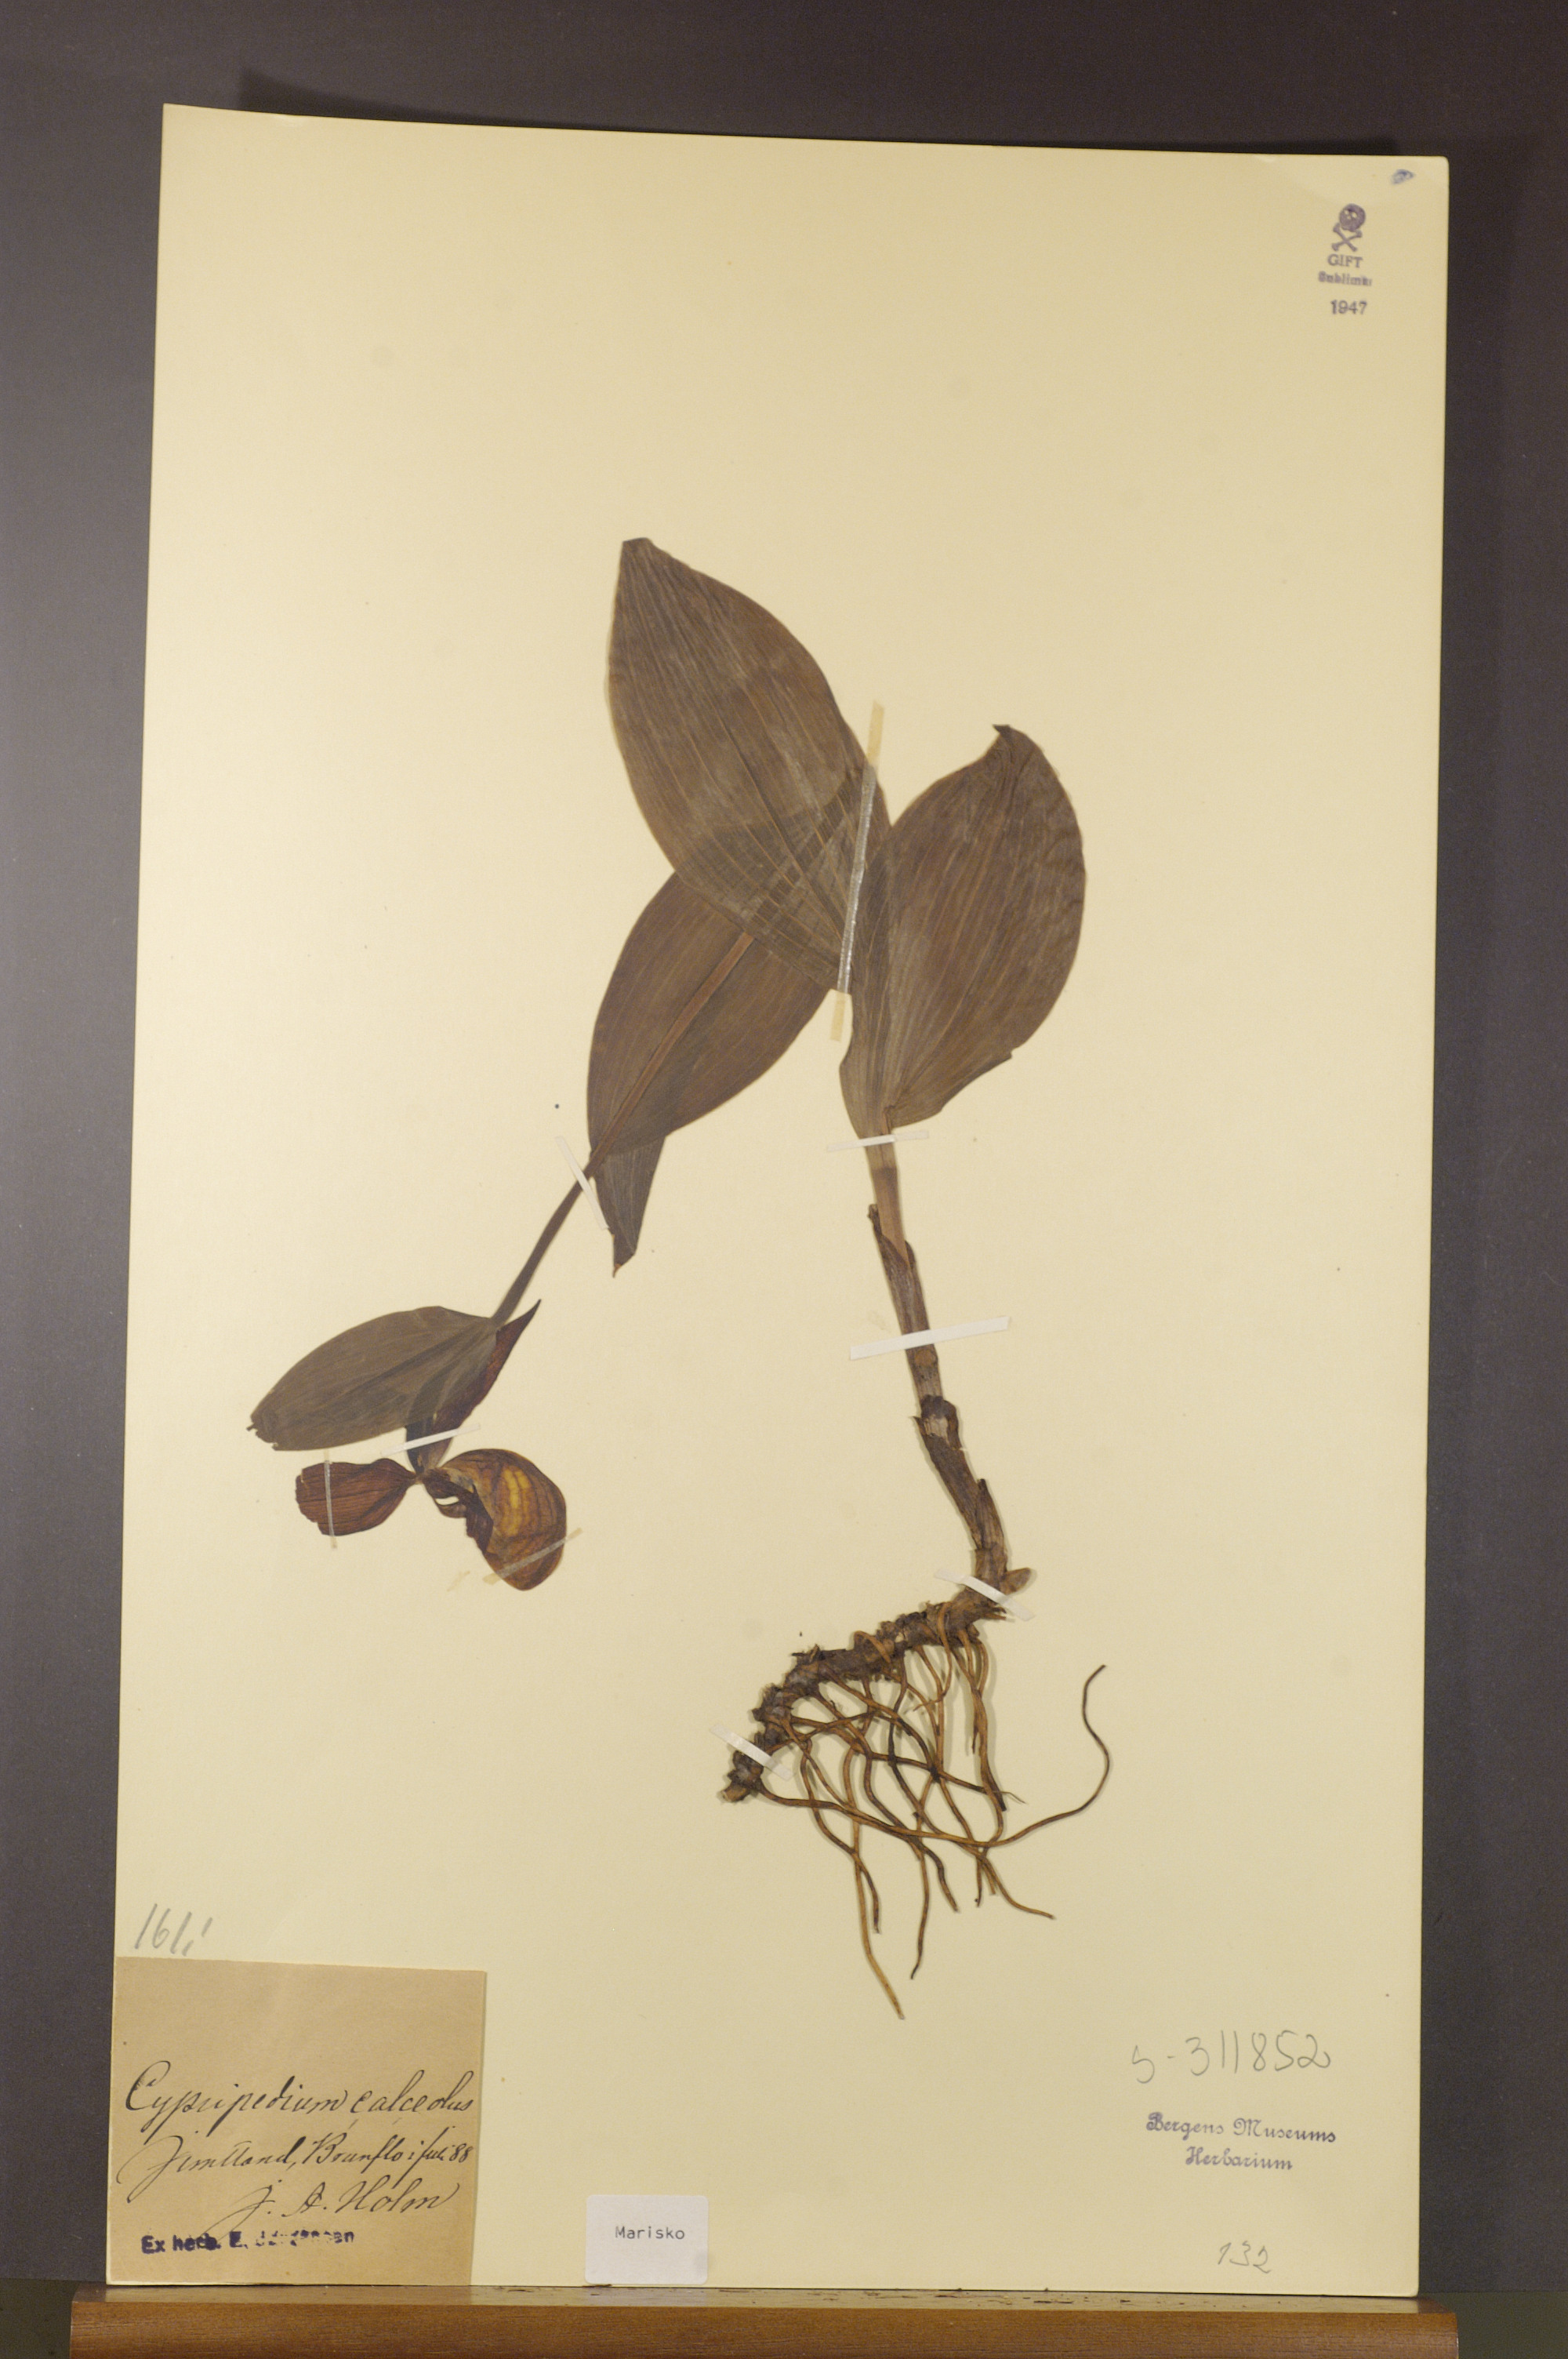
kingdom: Plantae
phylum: Tracheophyta
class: Liliopsida
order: Asparagales
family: Orchidaceae
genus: Cypripedium
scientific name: Cypripedium calceolus
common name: Lady's-slipper
